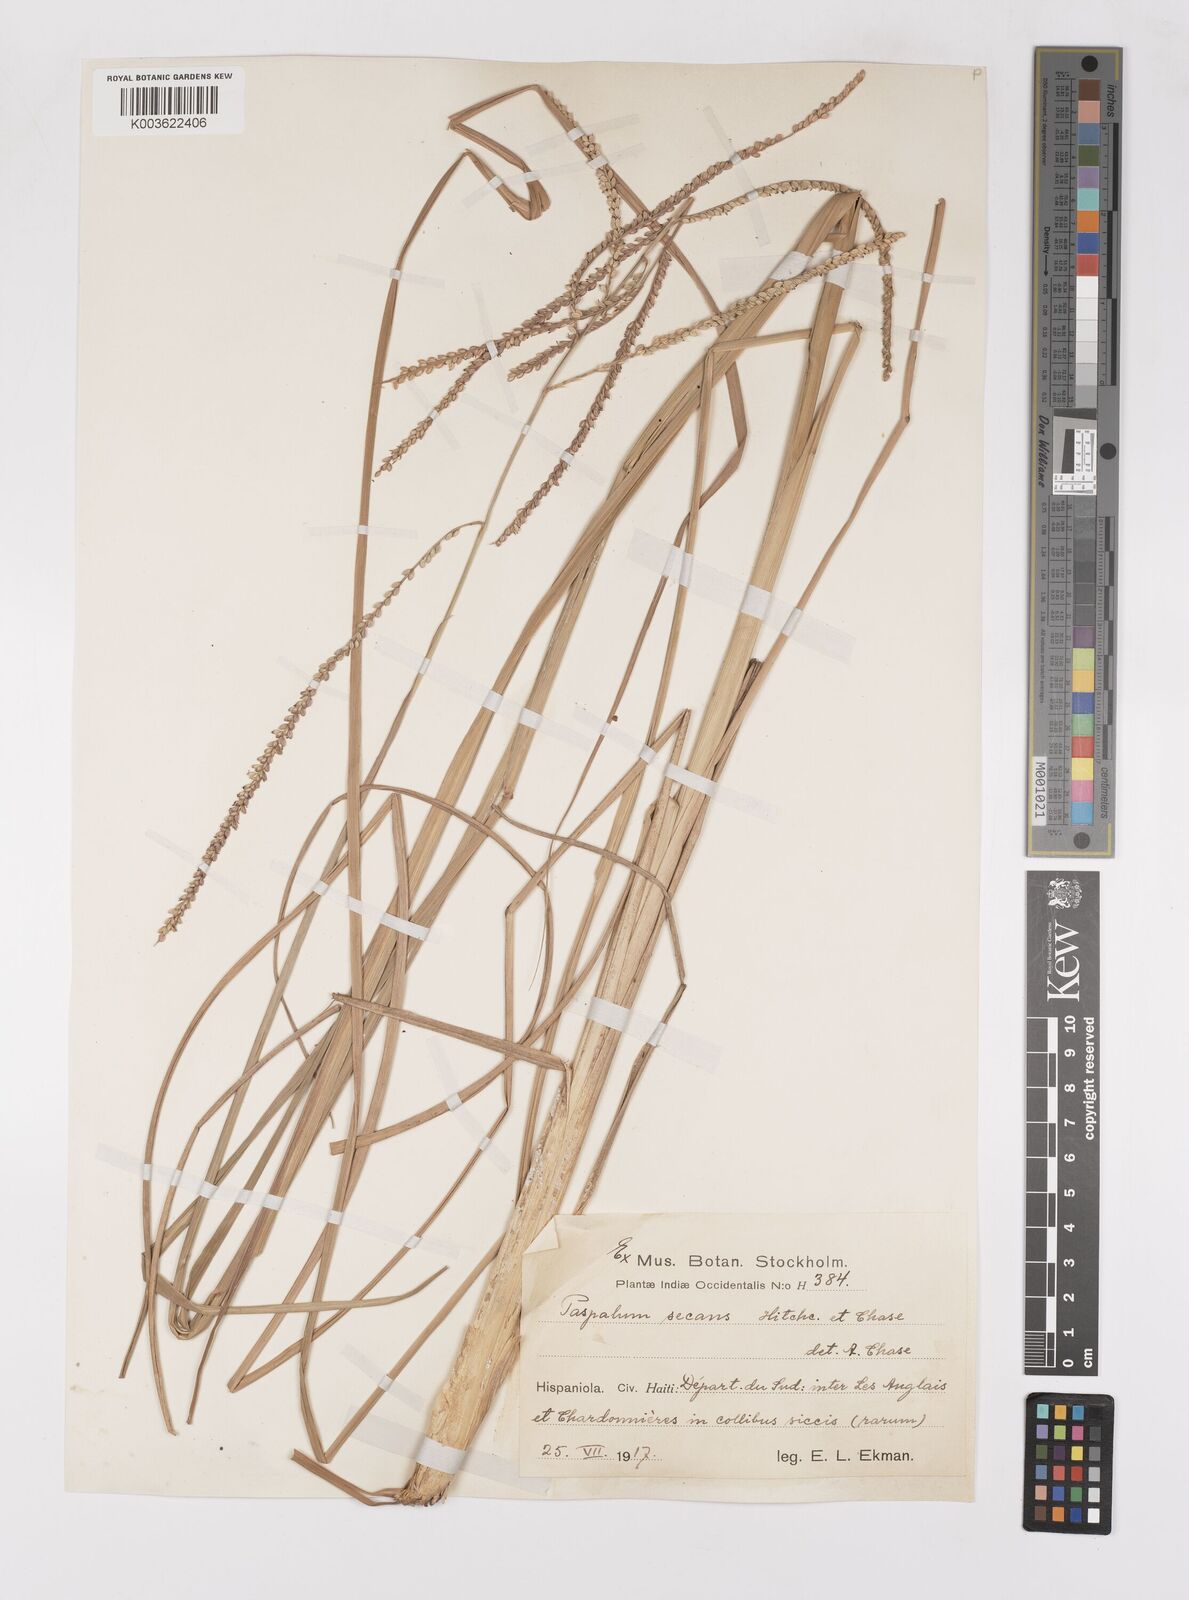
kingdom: Plantae
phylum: Tracheophyta
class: Liliopsida
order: Poales
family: Poaceae
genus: Paspalum
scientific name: Paspalum arundinaceum
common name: Thick ditch crowngrass
